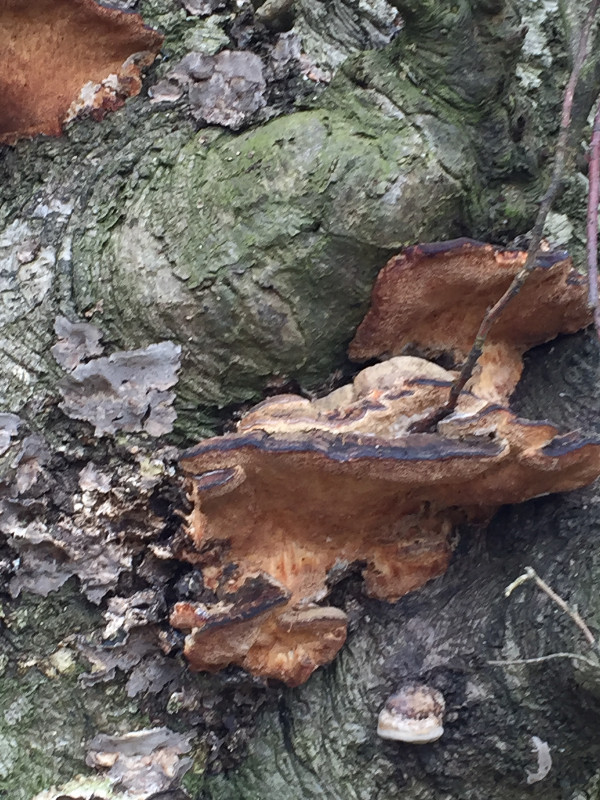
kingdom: Fungi
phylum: Basidiomycota
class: Agaricomycetes
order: Polyporales
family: Polyporaceae
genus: Fomes
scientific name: Fomes fomentarius
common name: tøndersvamp
